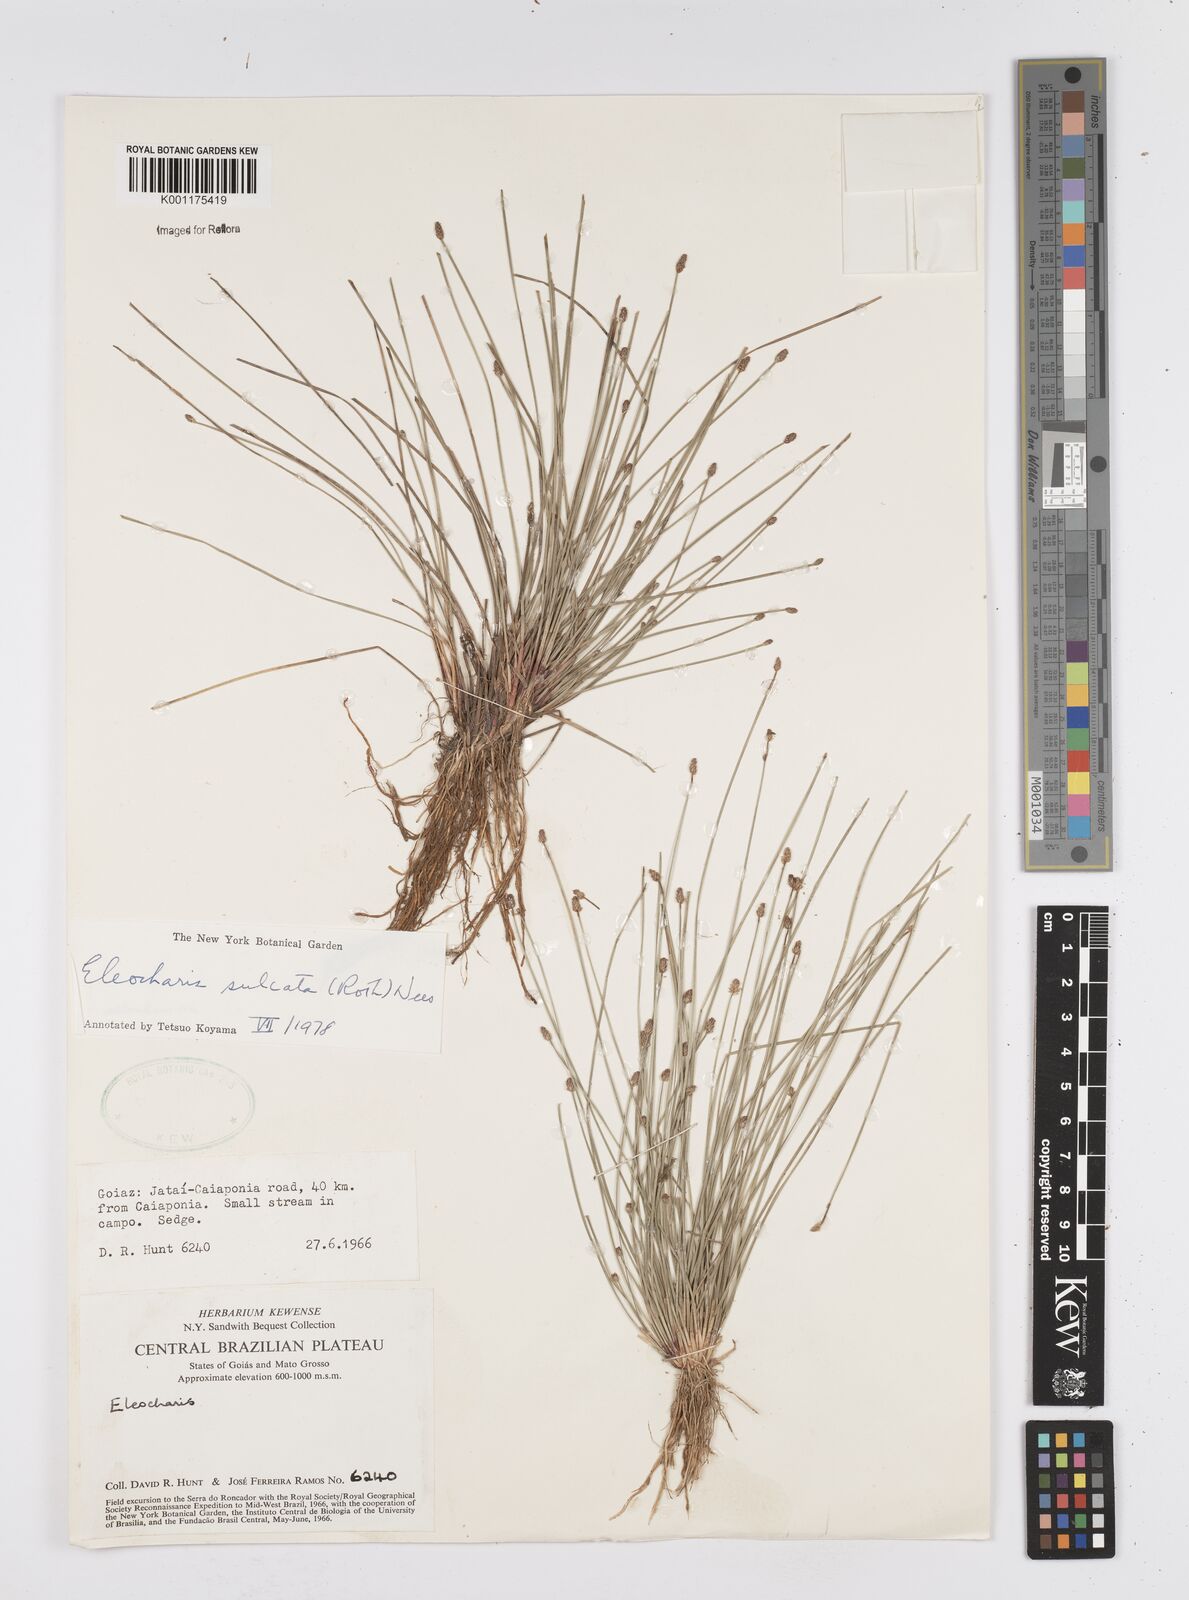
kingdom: Plantae
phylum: Tracheophyta
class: Liliopsida
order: Poales
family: Cyperaceae
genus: Eleocharis
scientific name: Eleocharis filiculmis
